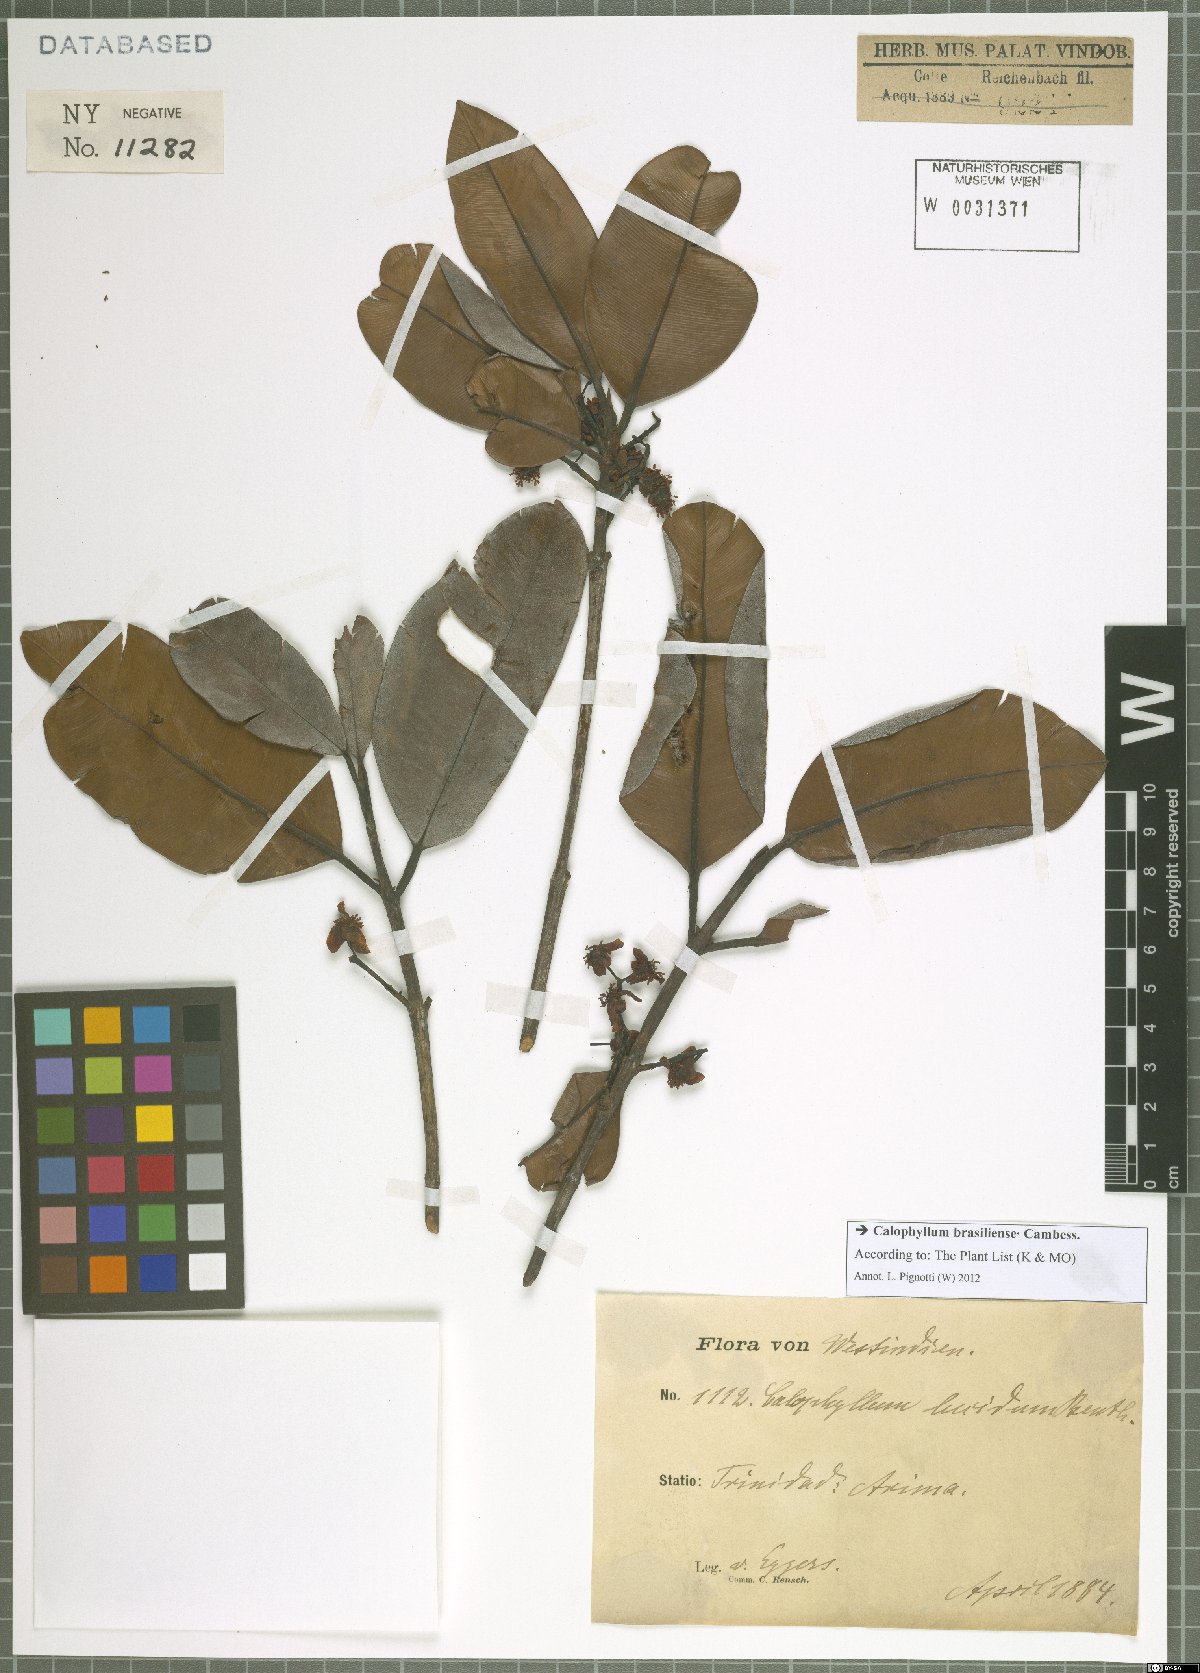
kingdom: Plantae
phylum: Tracheophyta
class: Magnoliopsida
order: Malpighiales
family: Calophyllaceae
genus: Calophyllum
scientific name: Calophyllum brasiliense
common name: Santa maria
